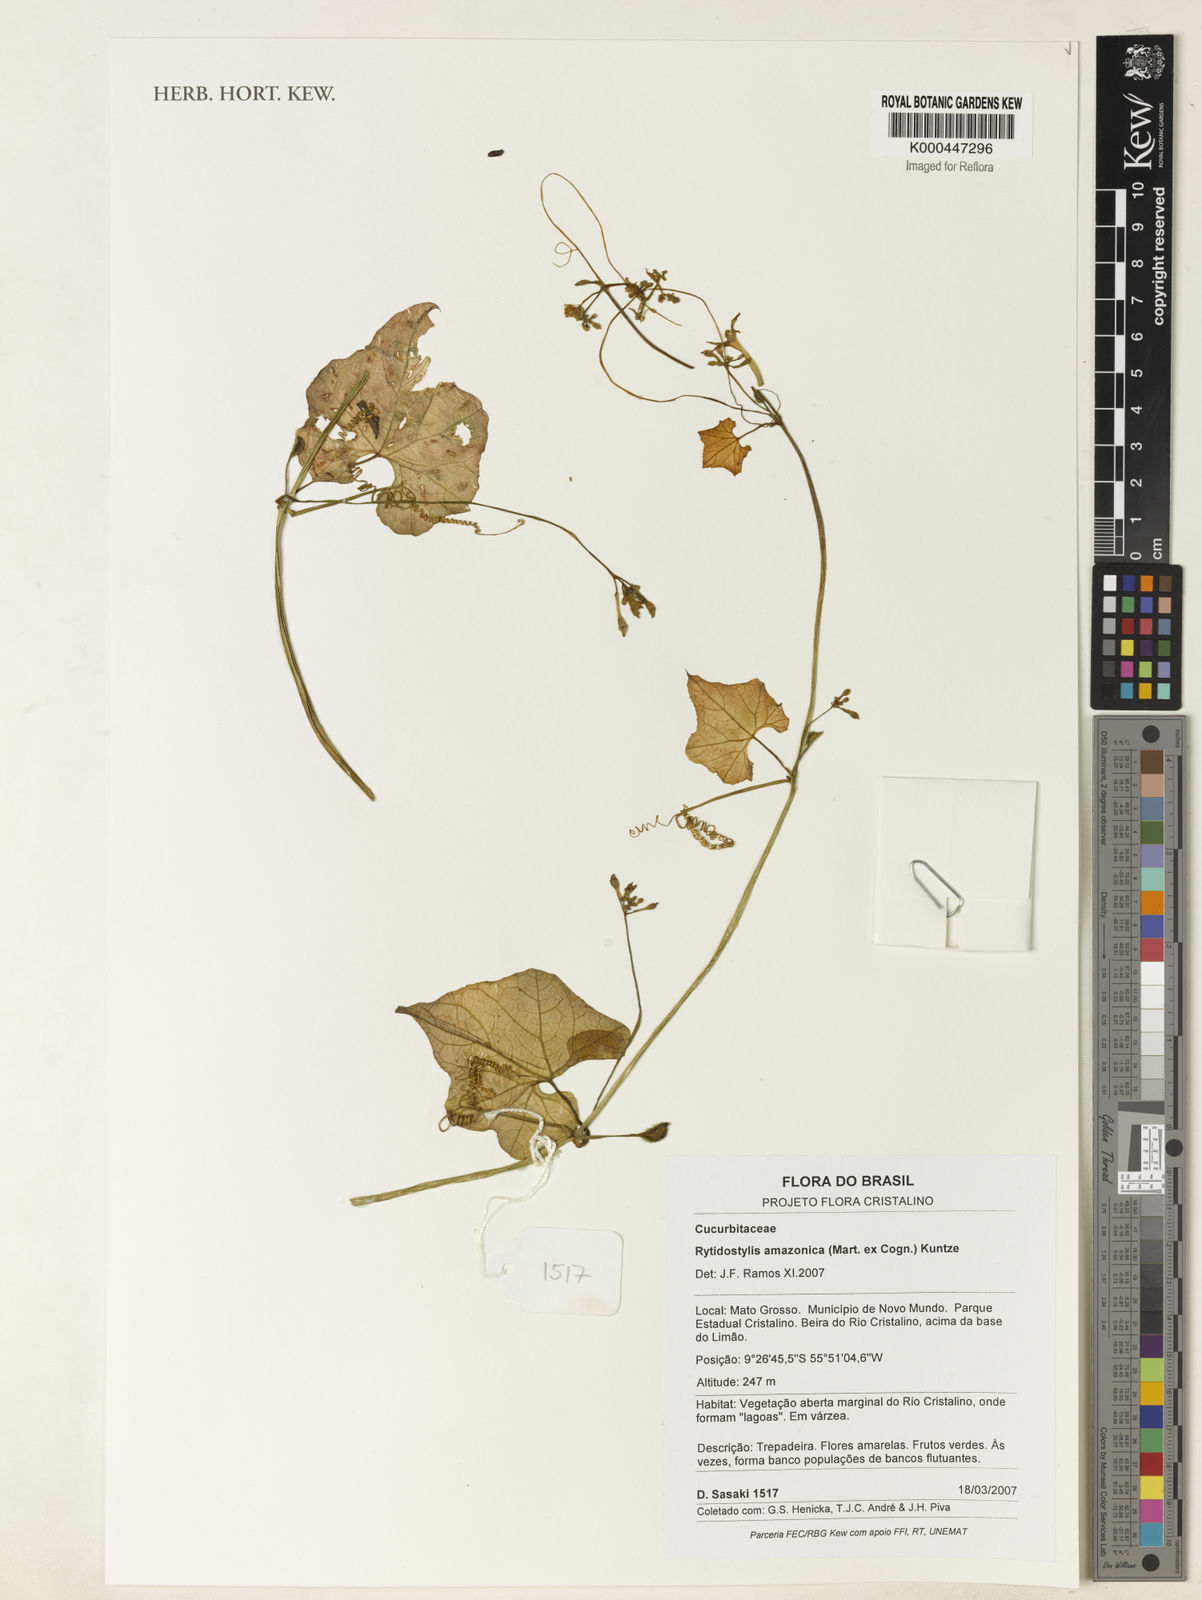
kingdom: Plantae
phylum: Tracheophyta
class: Magnoliopsida
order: Cucurbitales
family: Cucurbitaceae
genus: Cyclanthera
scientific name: Cyclanthera carthagenensis
